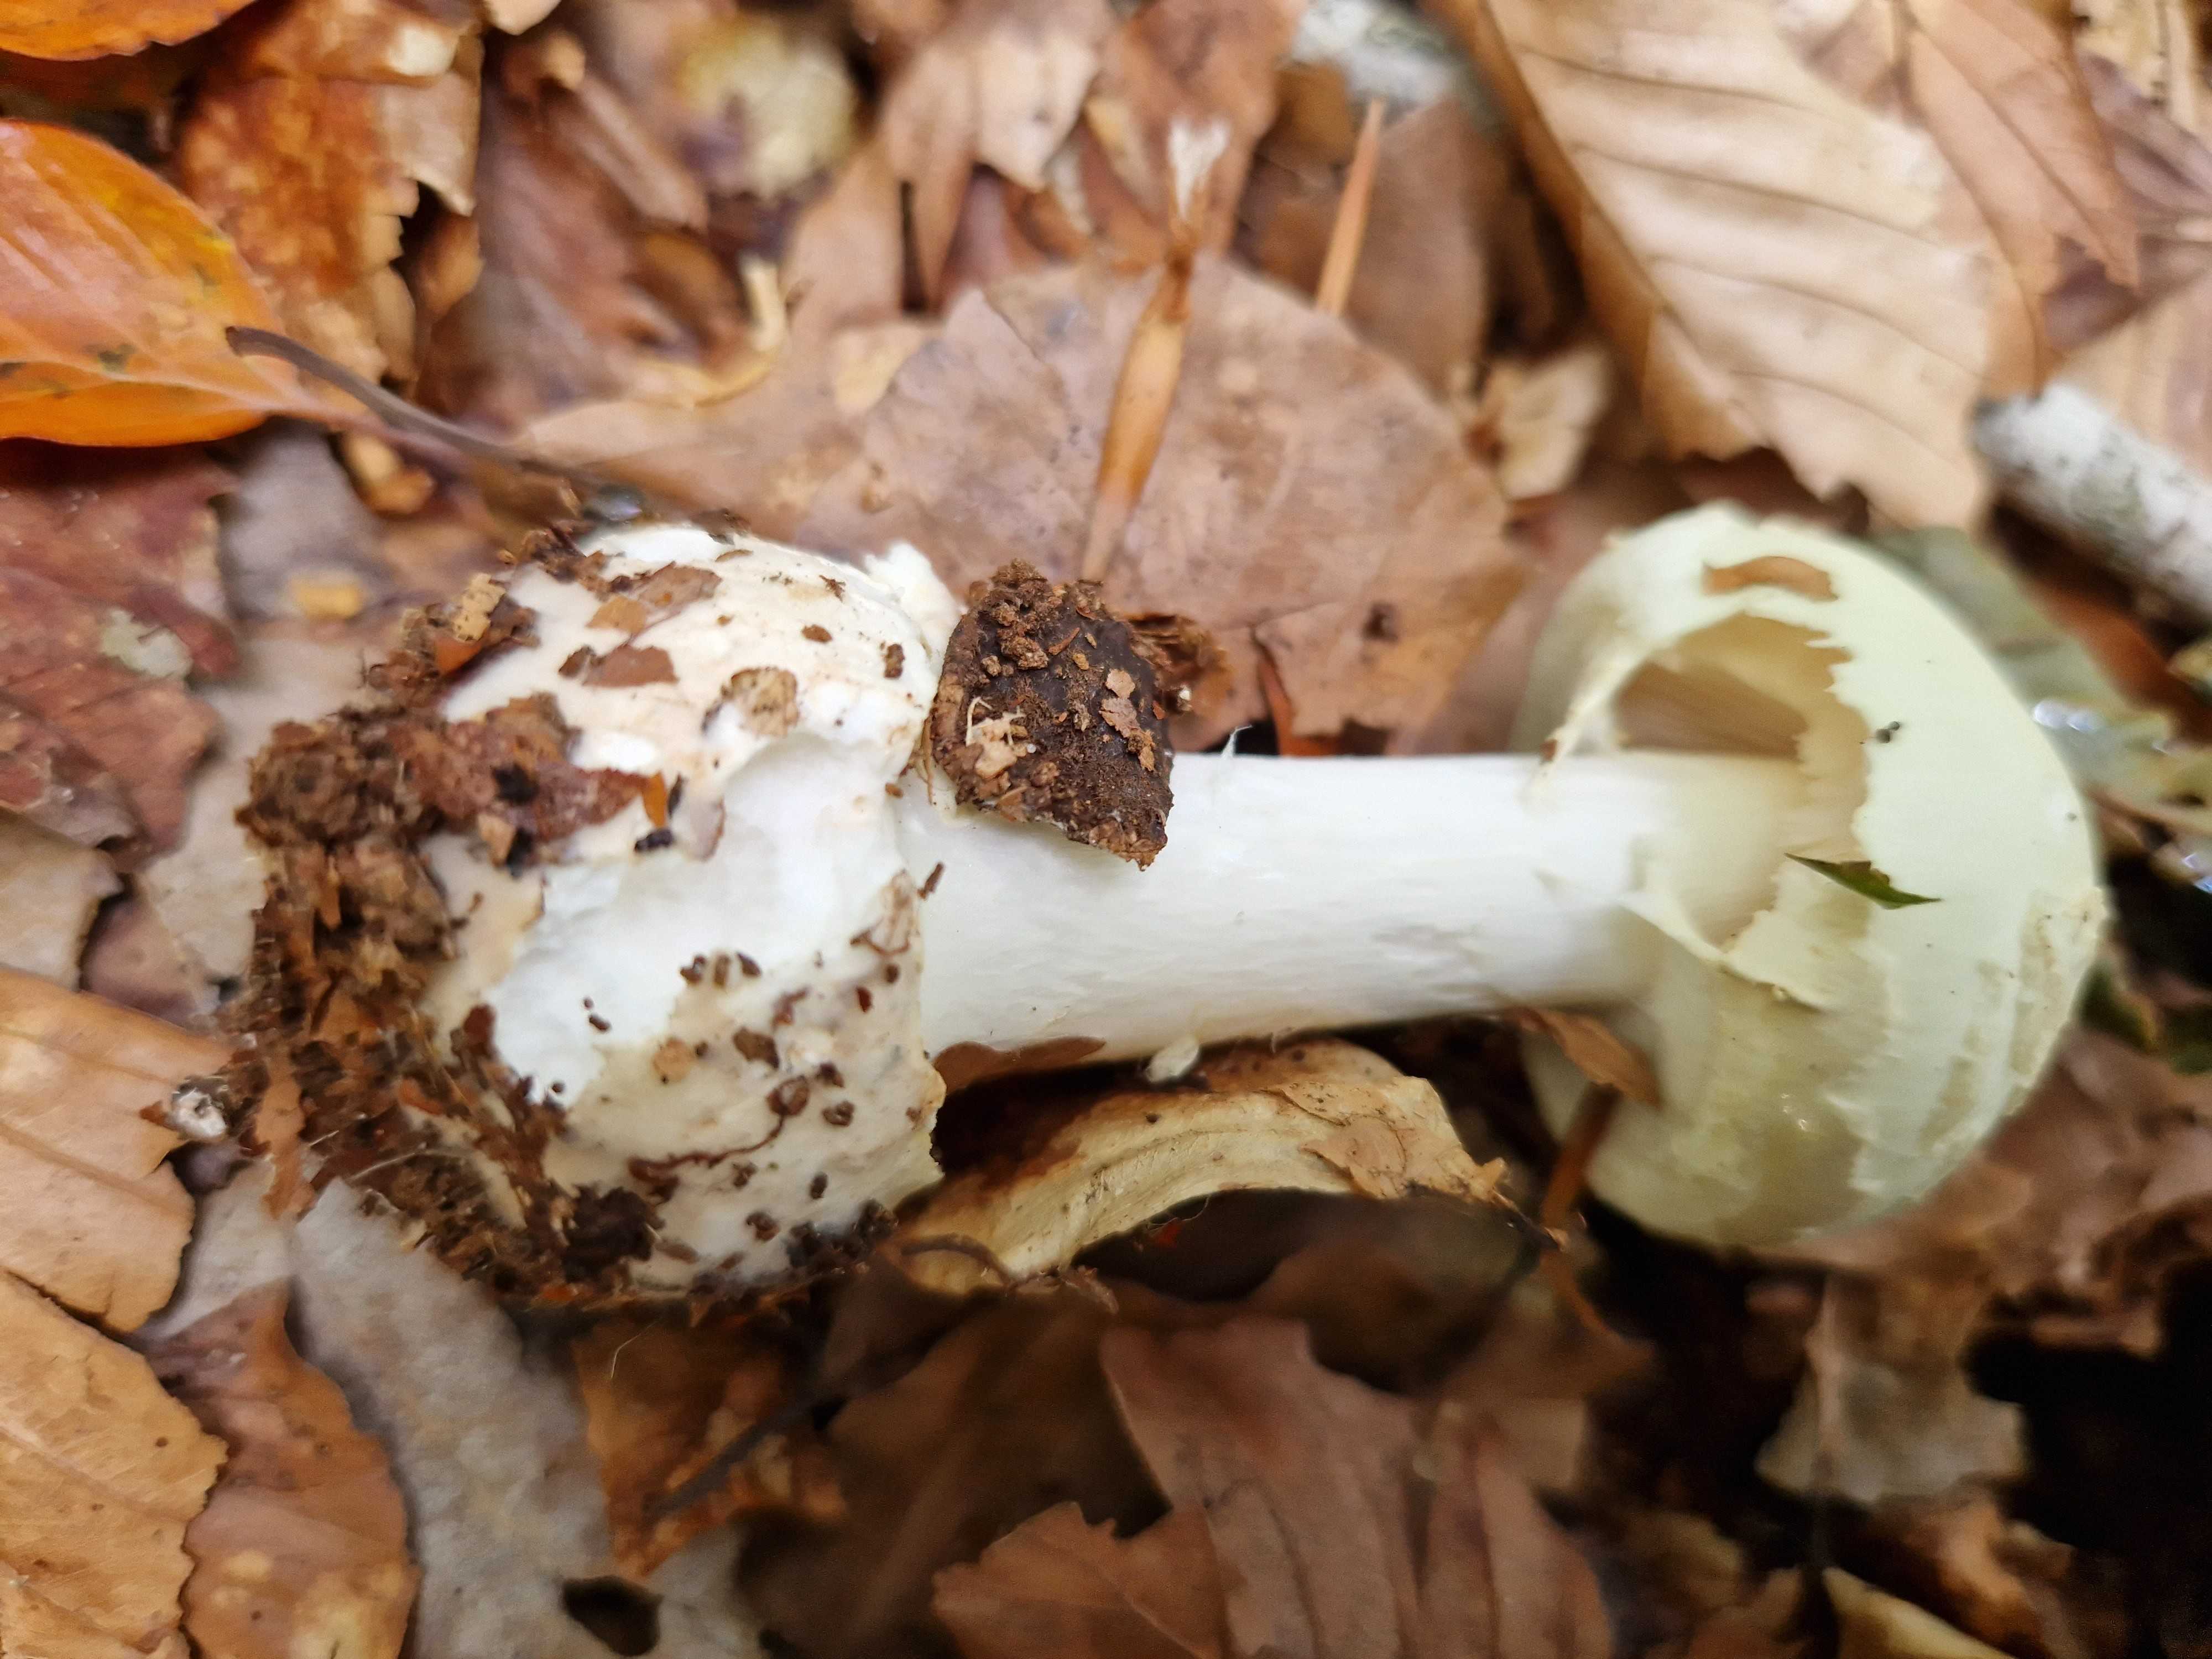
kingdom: Fungi
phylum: Basidiomycota
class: Agaricomycetes
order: Agaricales
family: Amanitaceae
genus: Amanita
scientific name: Amanita citrina
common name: kugleknoldet fluesvamp
